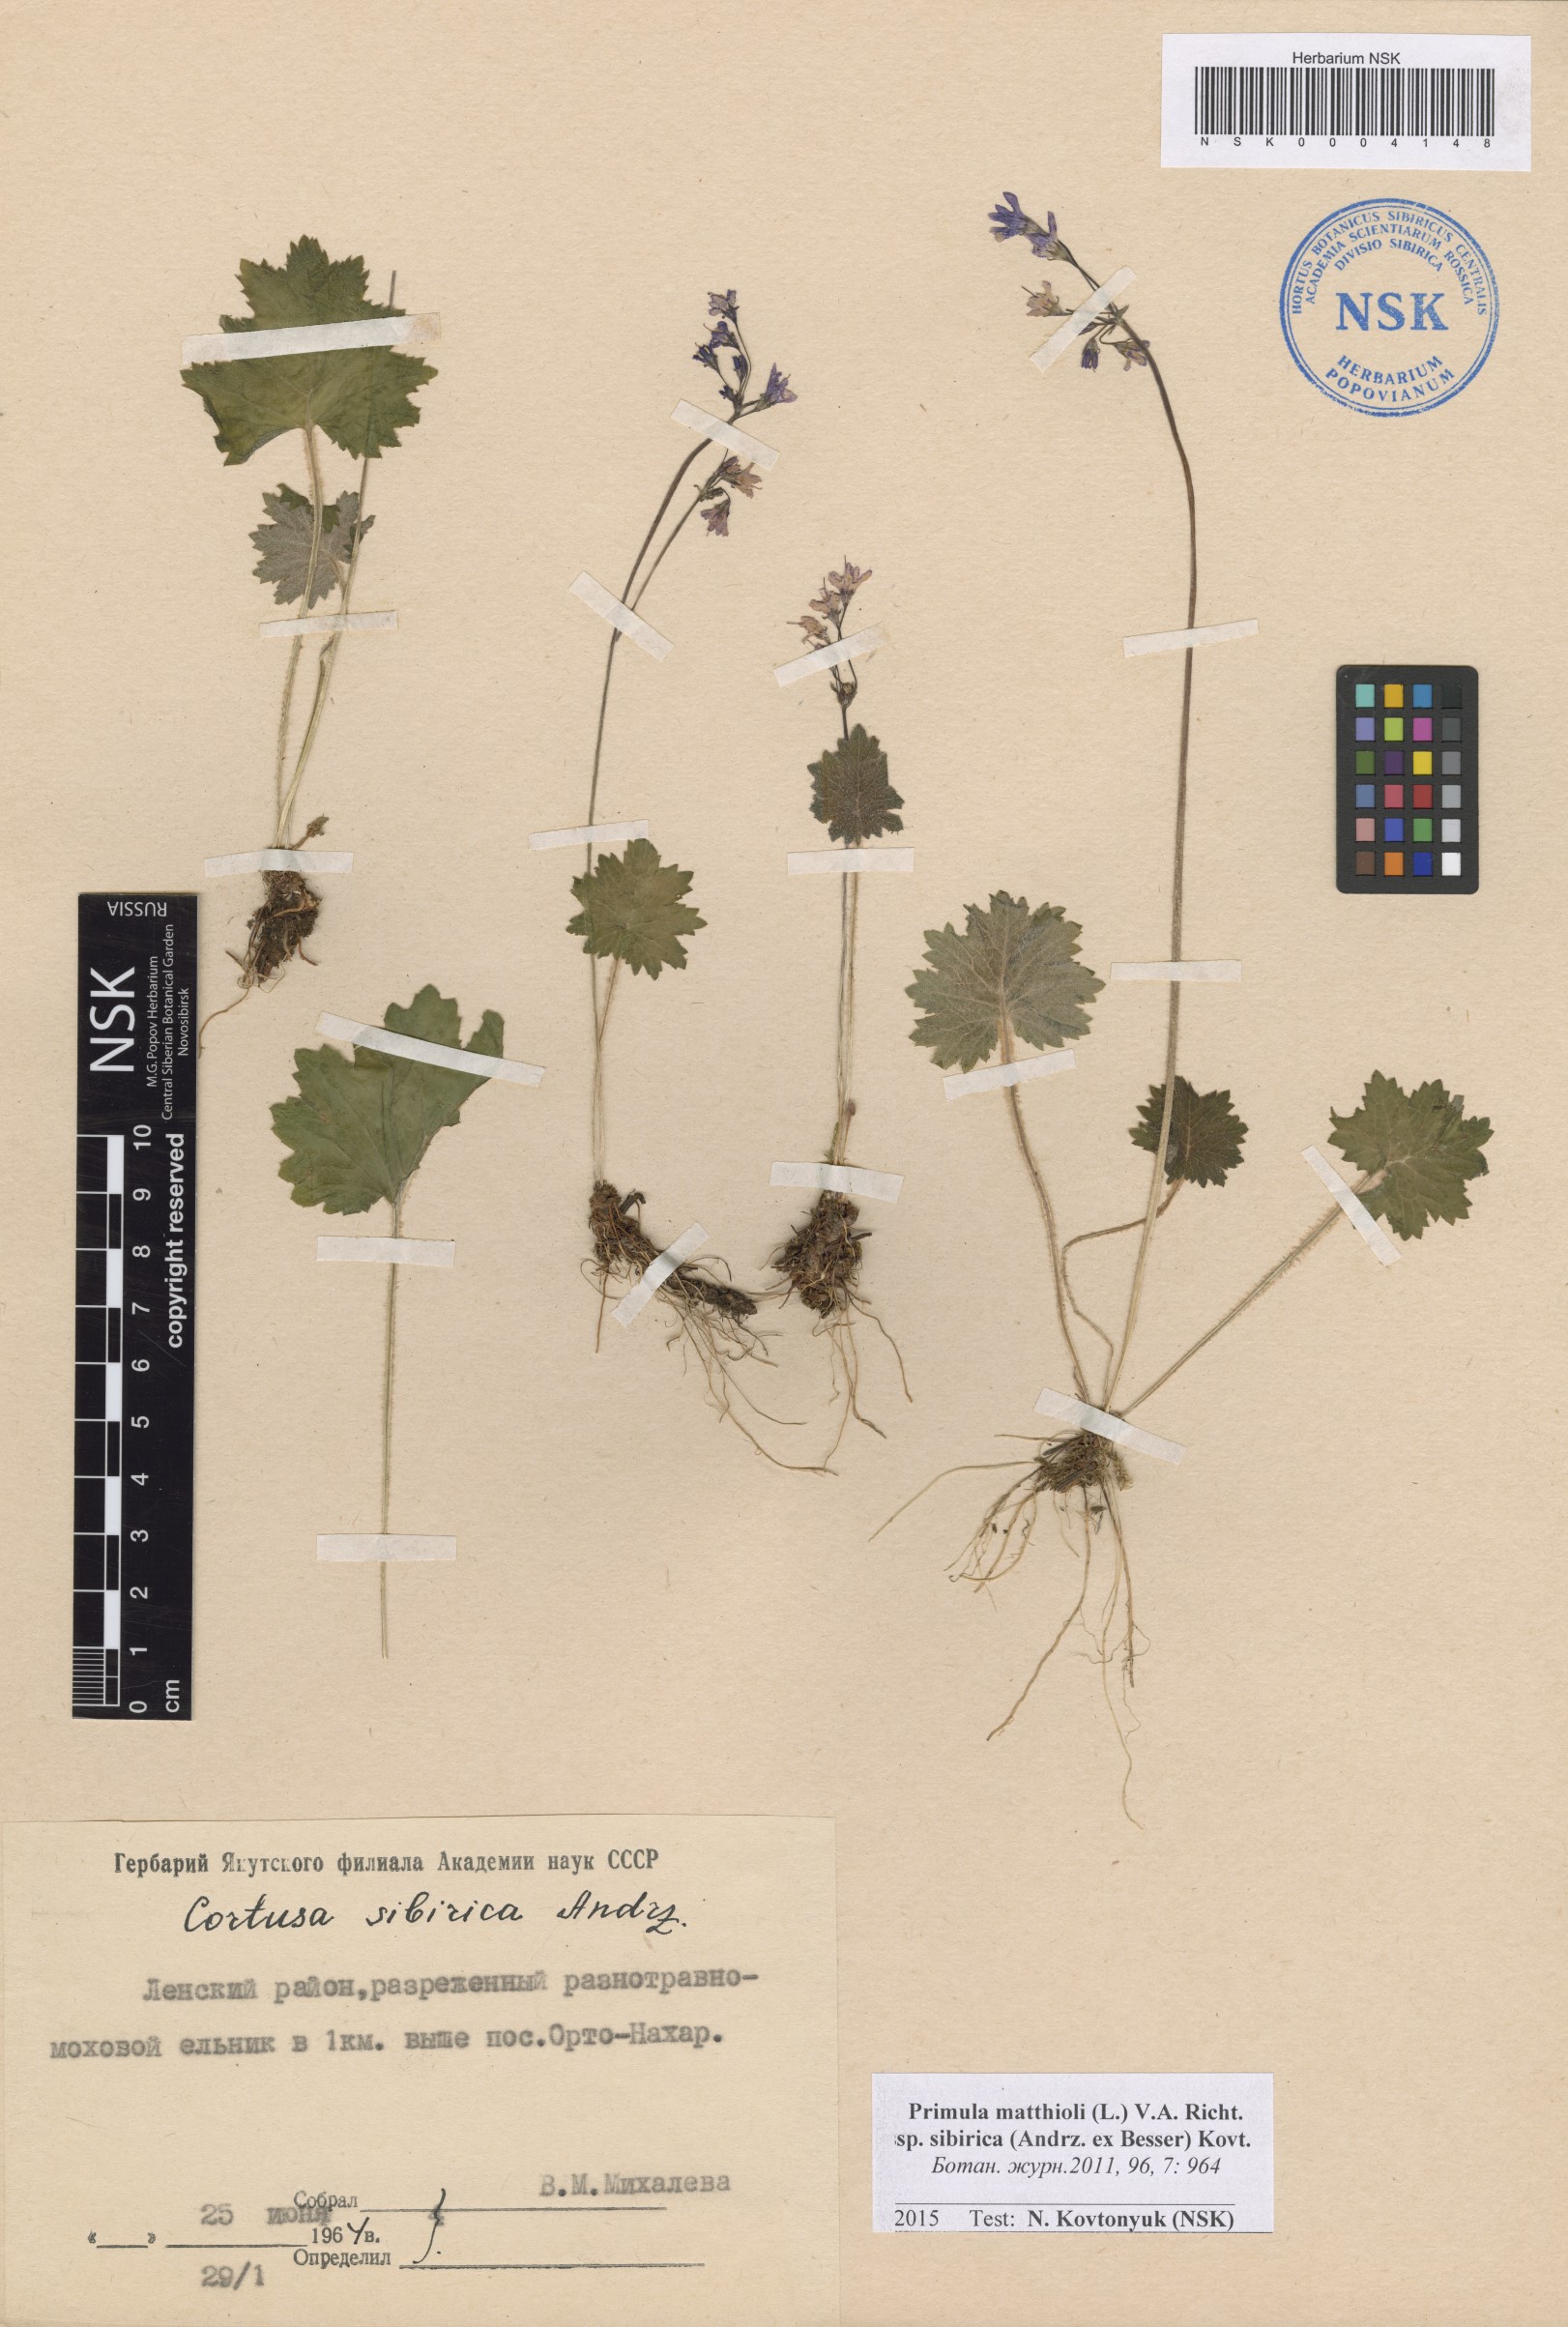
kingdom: Plantae
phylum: Tracheophyta
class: Magnoliopsida
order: Ericales
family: Primulaceae
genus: Primula
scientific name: Primula matthioli
